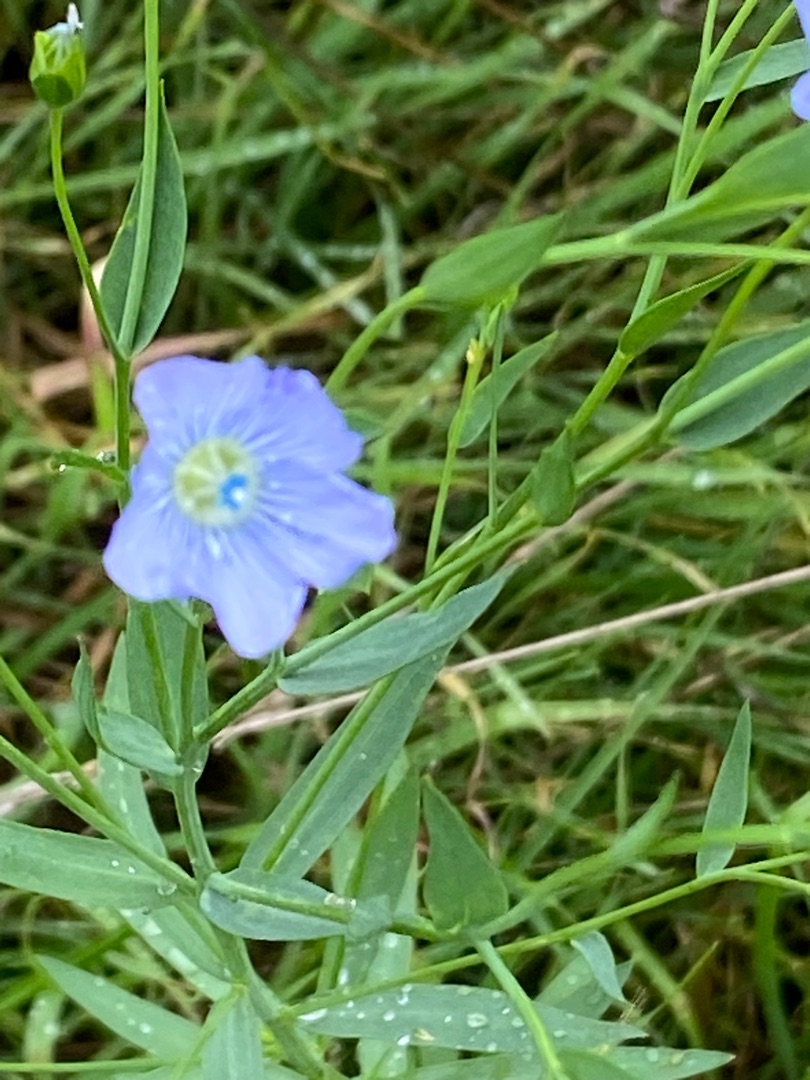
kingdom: Plantae
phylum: Tracheophyta
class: Magnoliopsida
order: Malpighiales
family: Linaceae
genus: Linum
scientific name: Linum usitatissimum
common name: Almindelig hør
